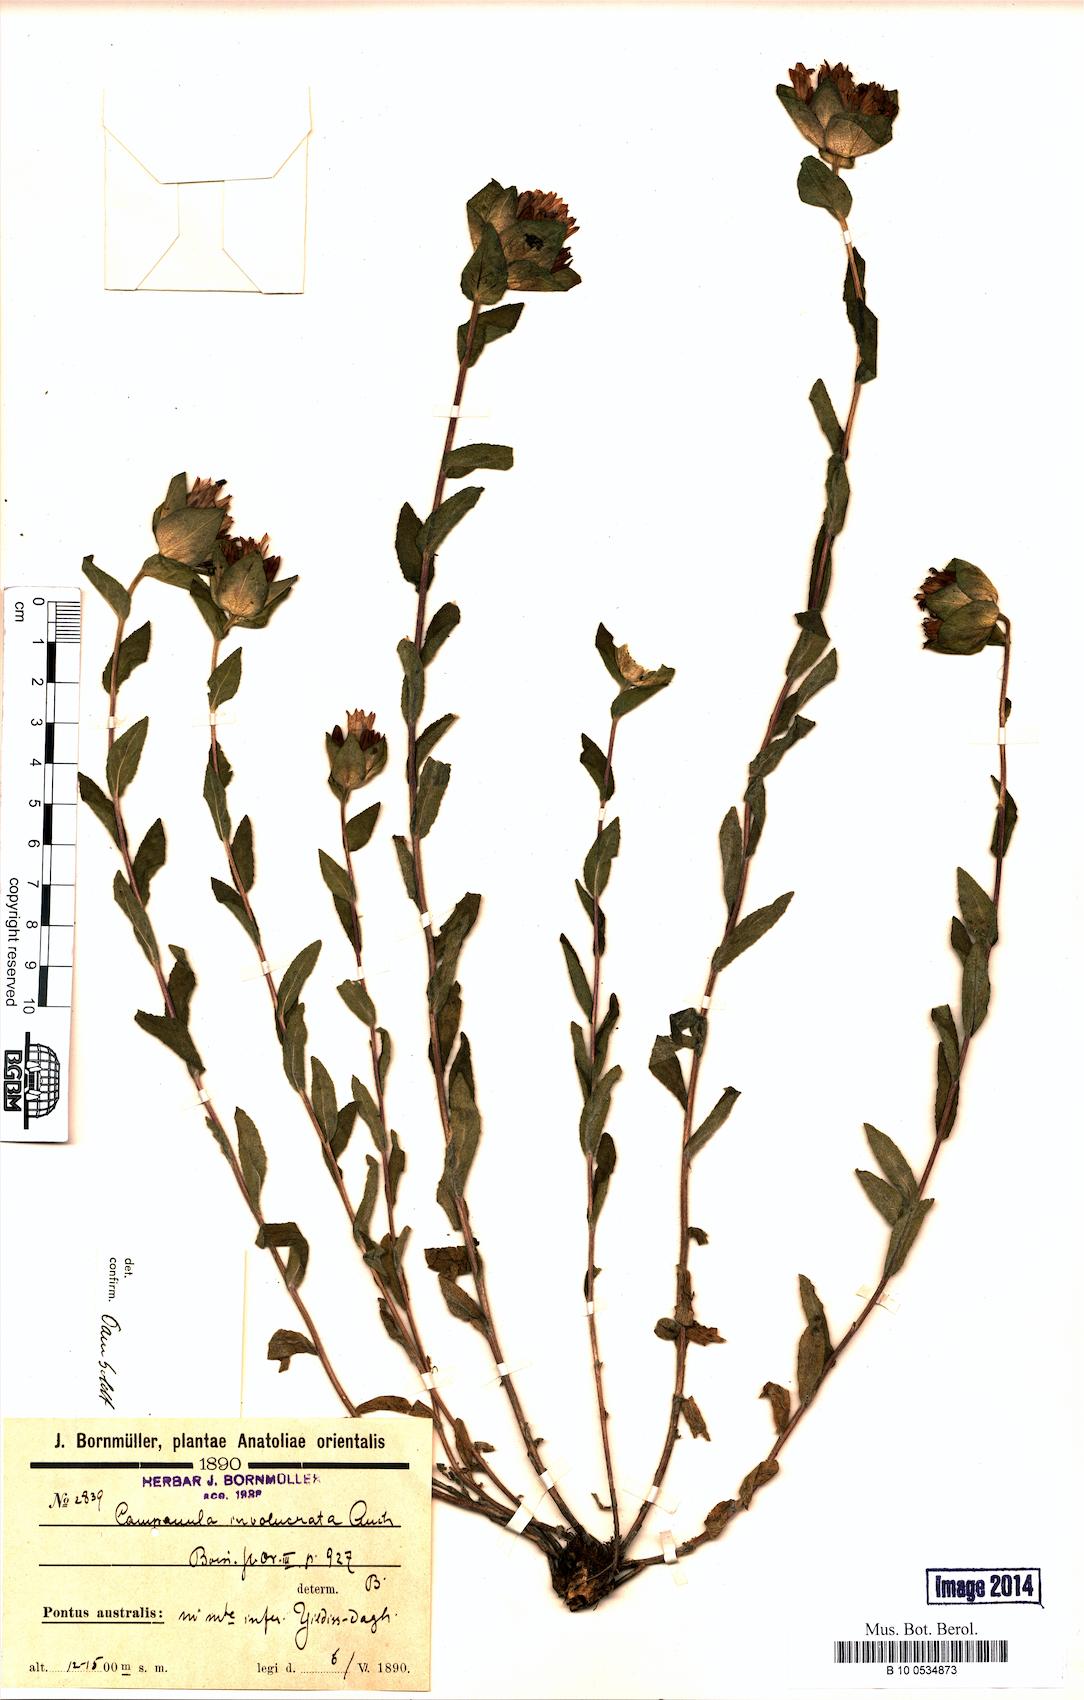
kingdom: Plantae
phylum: Tracheophyta
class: Magnoliopsida
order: Asterales
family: Campanulaceae
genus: Campanula
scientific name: Campanula involucrata
